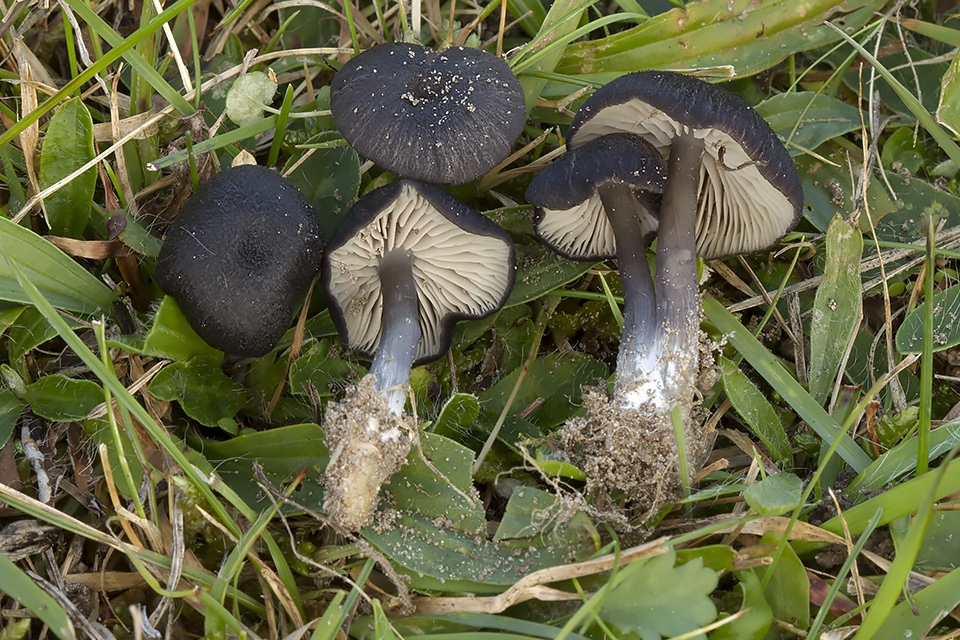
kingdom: Fungi
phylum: Basidiomycota
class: Agaricomycetes
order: Agaricales
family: Entolomataceae
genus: Entoloma
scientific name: Entoloma porphyrogriseum
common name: porfyrgrå rødblad
